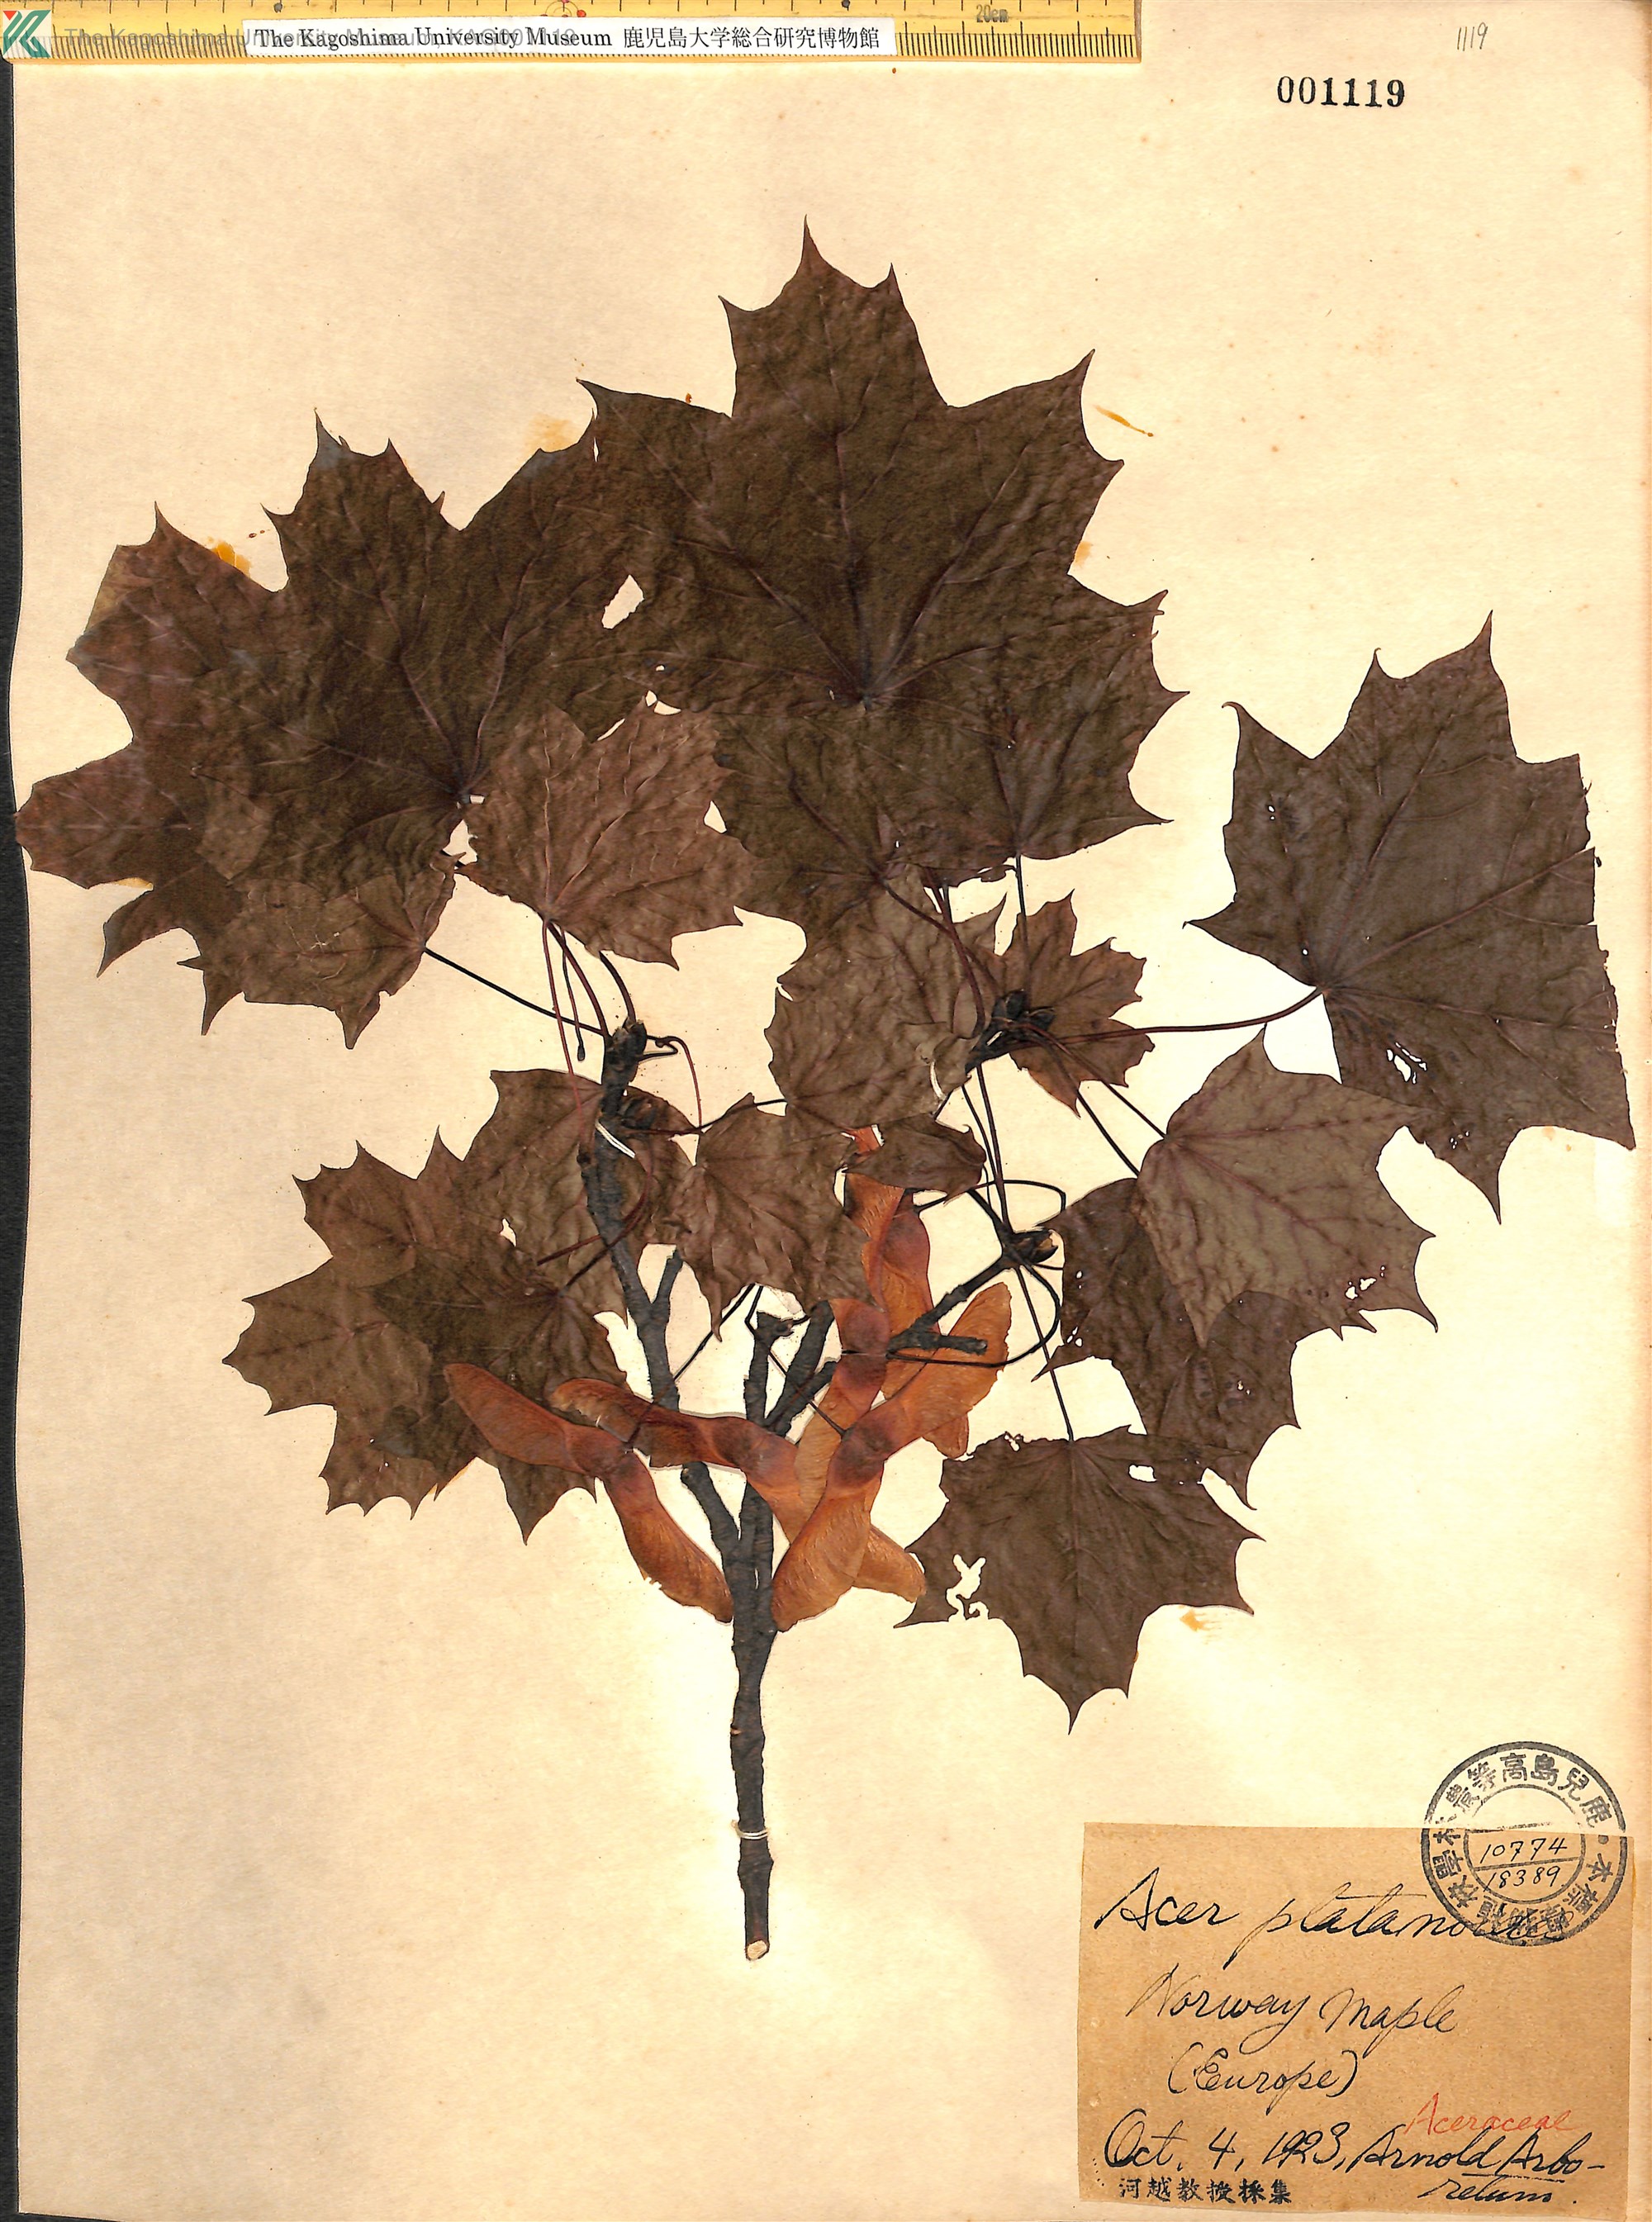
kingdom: Plantae
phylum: Tracheophyta
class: Magnoliopsida
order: Sapindales
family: Sapindaceae
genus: Acer
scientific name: Acer platanoides
